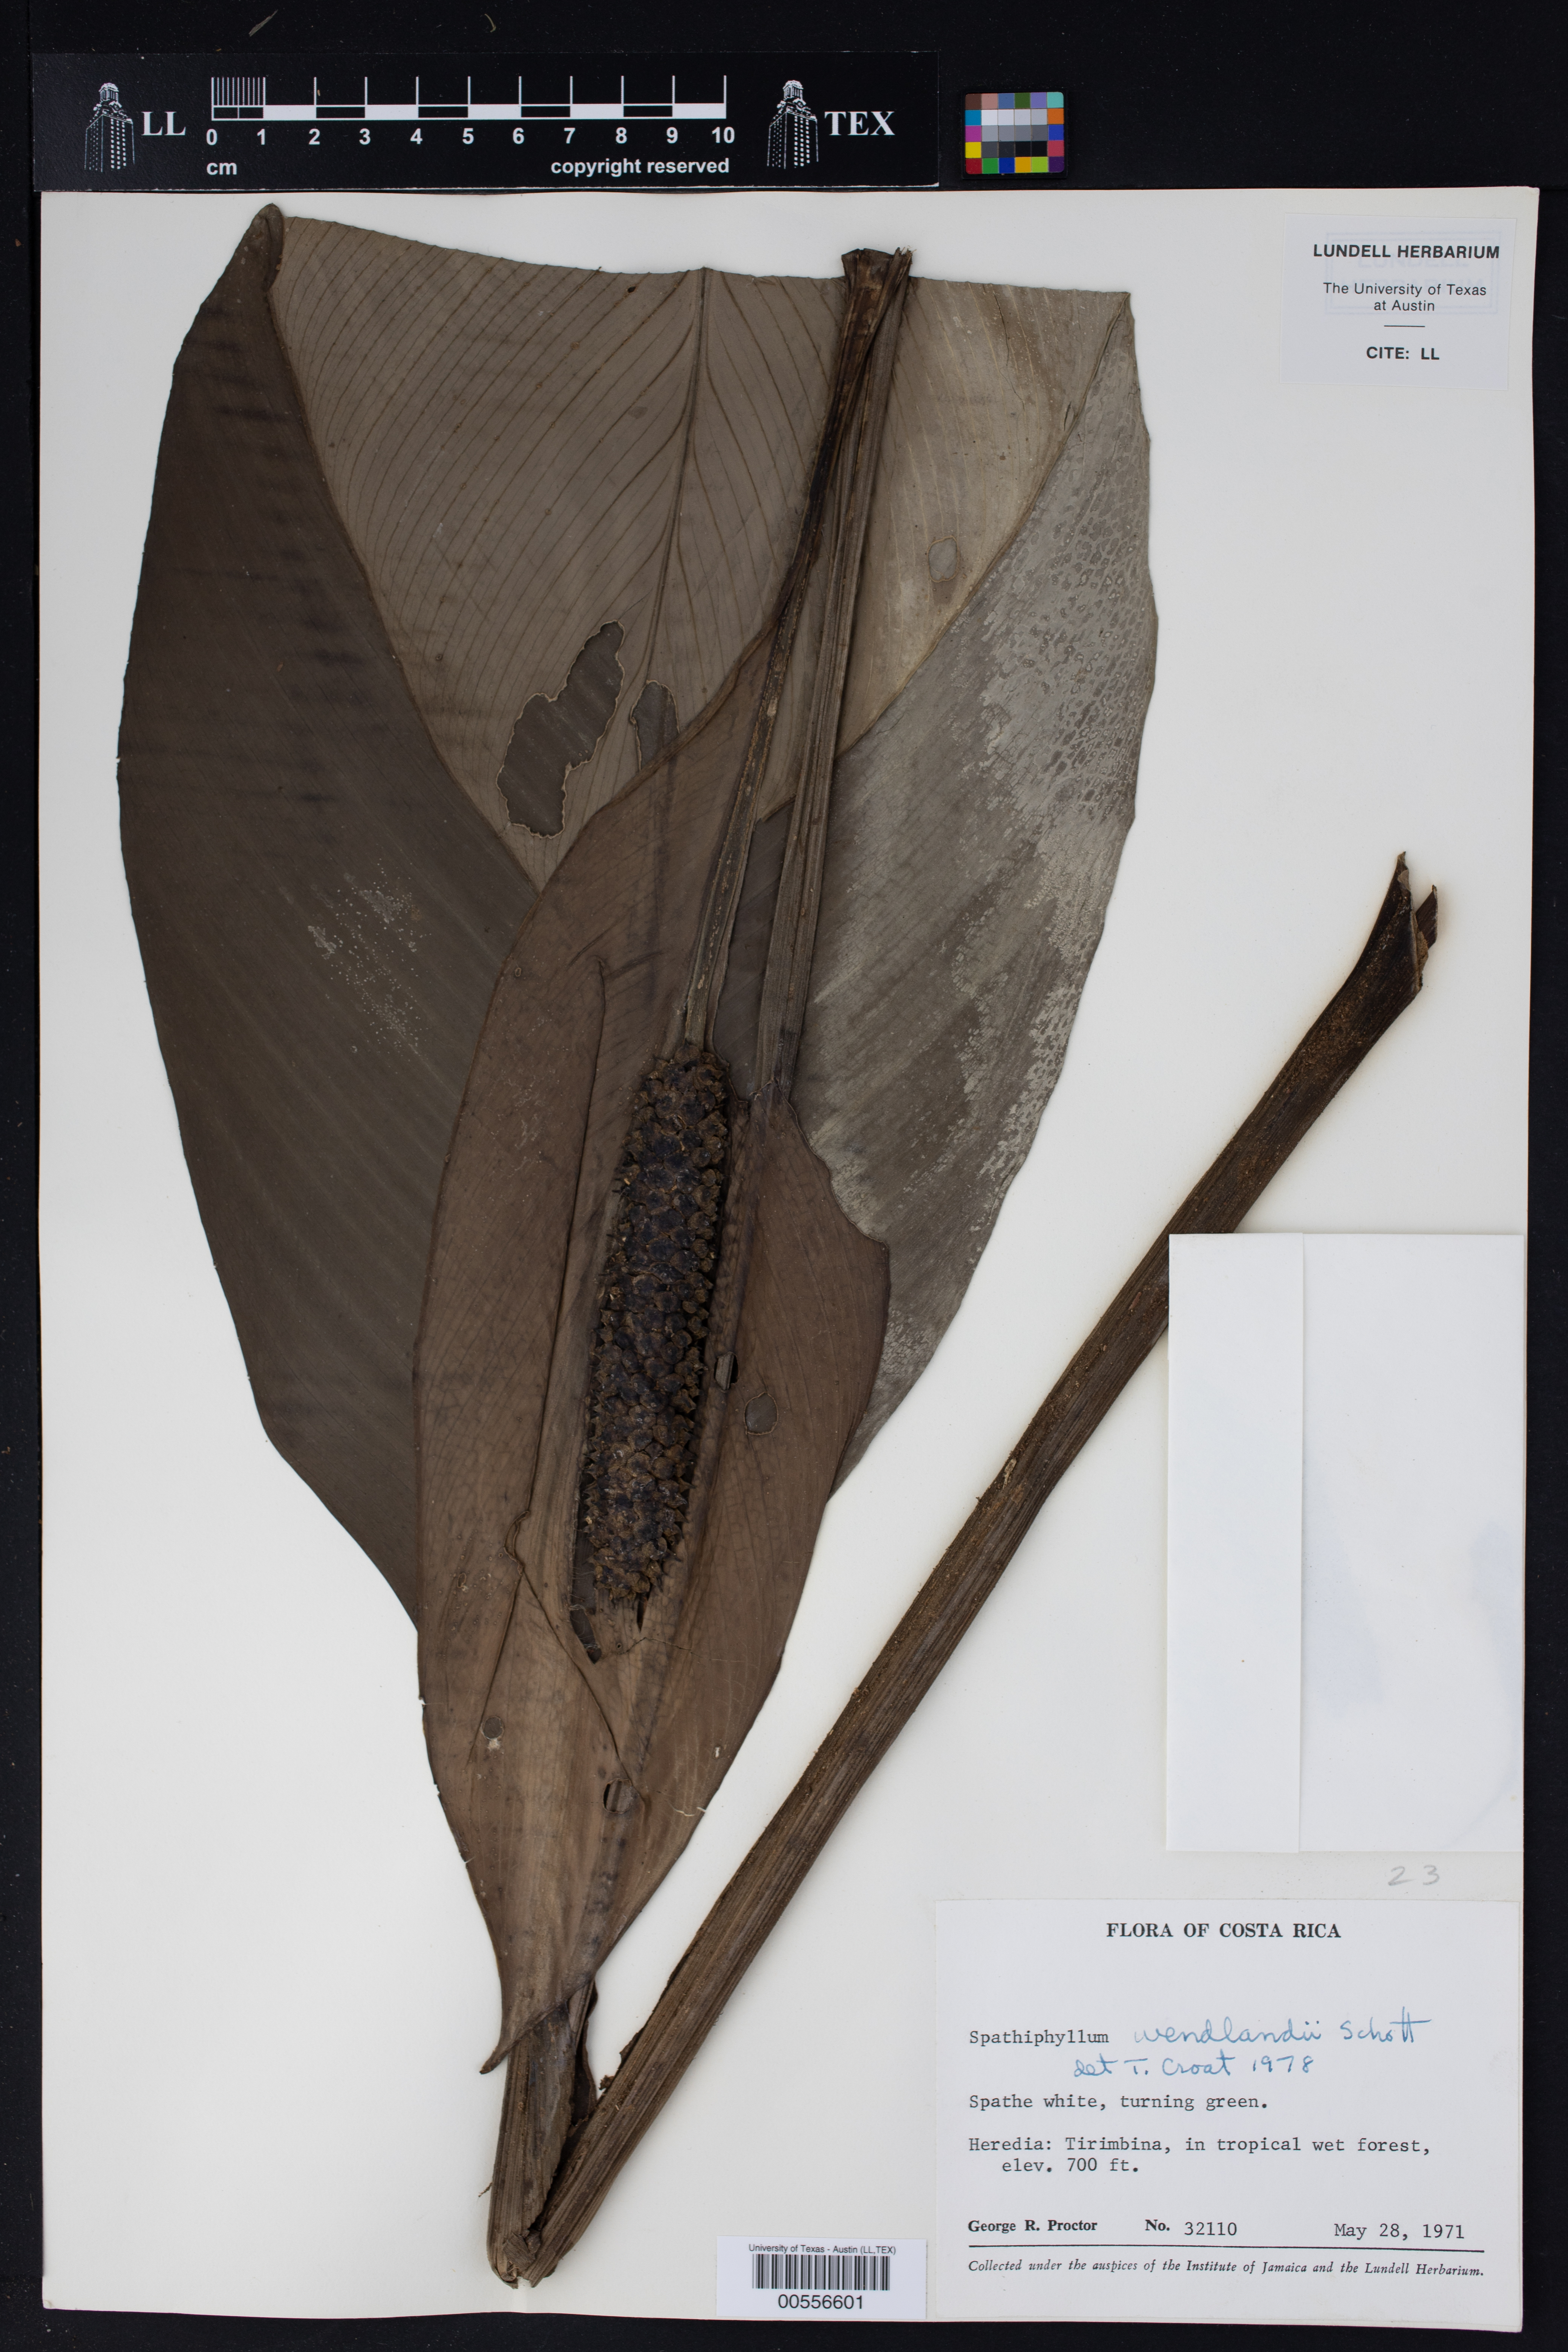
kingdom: Plantae
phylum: Tracheophyta
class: Liliopsida
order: Alismatales
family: Araceae
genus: Spathiphyllum
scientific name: Spathiphyllum wendlandii
